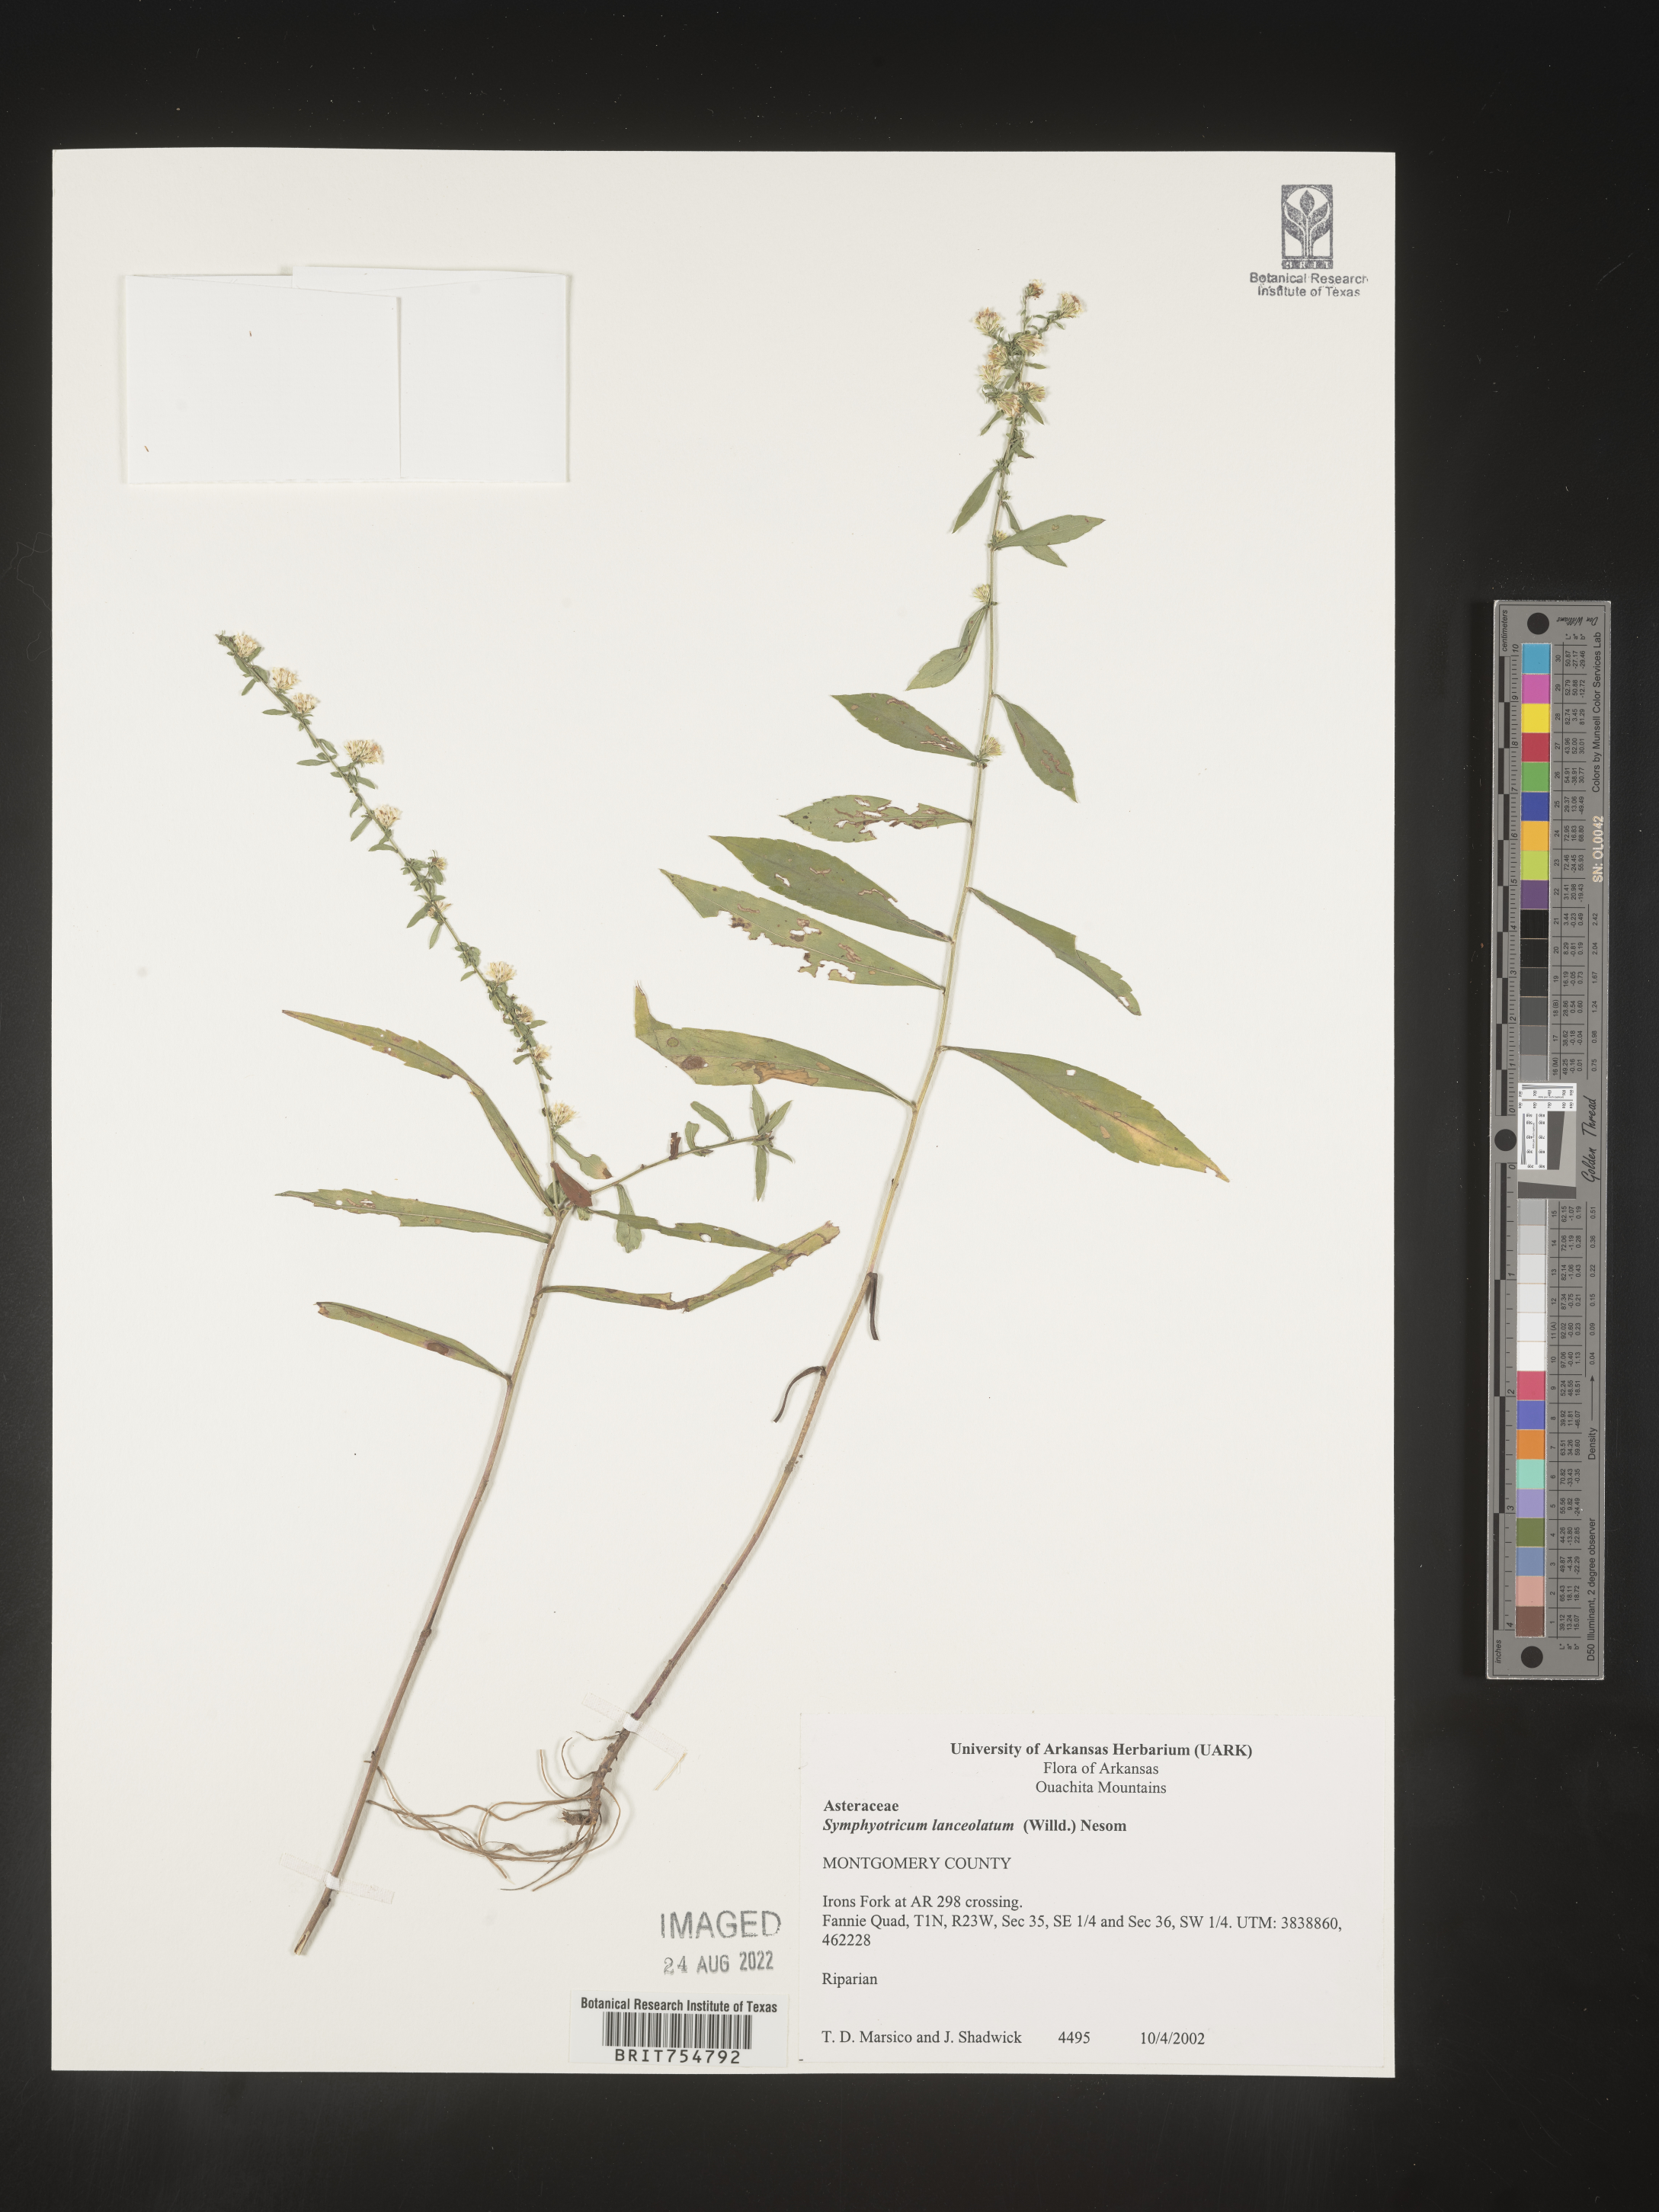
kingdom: Plantae
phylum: Tracheophyta
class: Magnoliopsida
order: Asterales
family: Asteraceae
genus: Symphyotrichum
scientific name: Symphyotrichum
